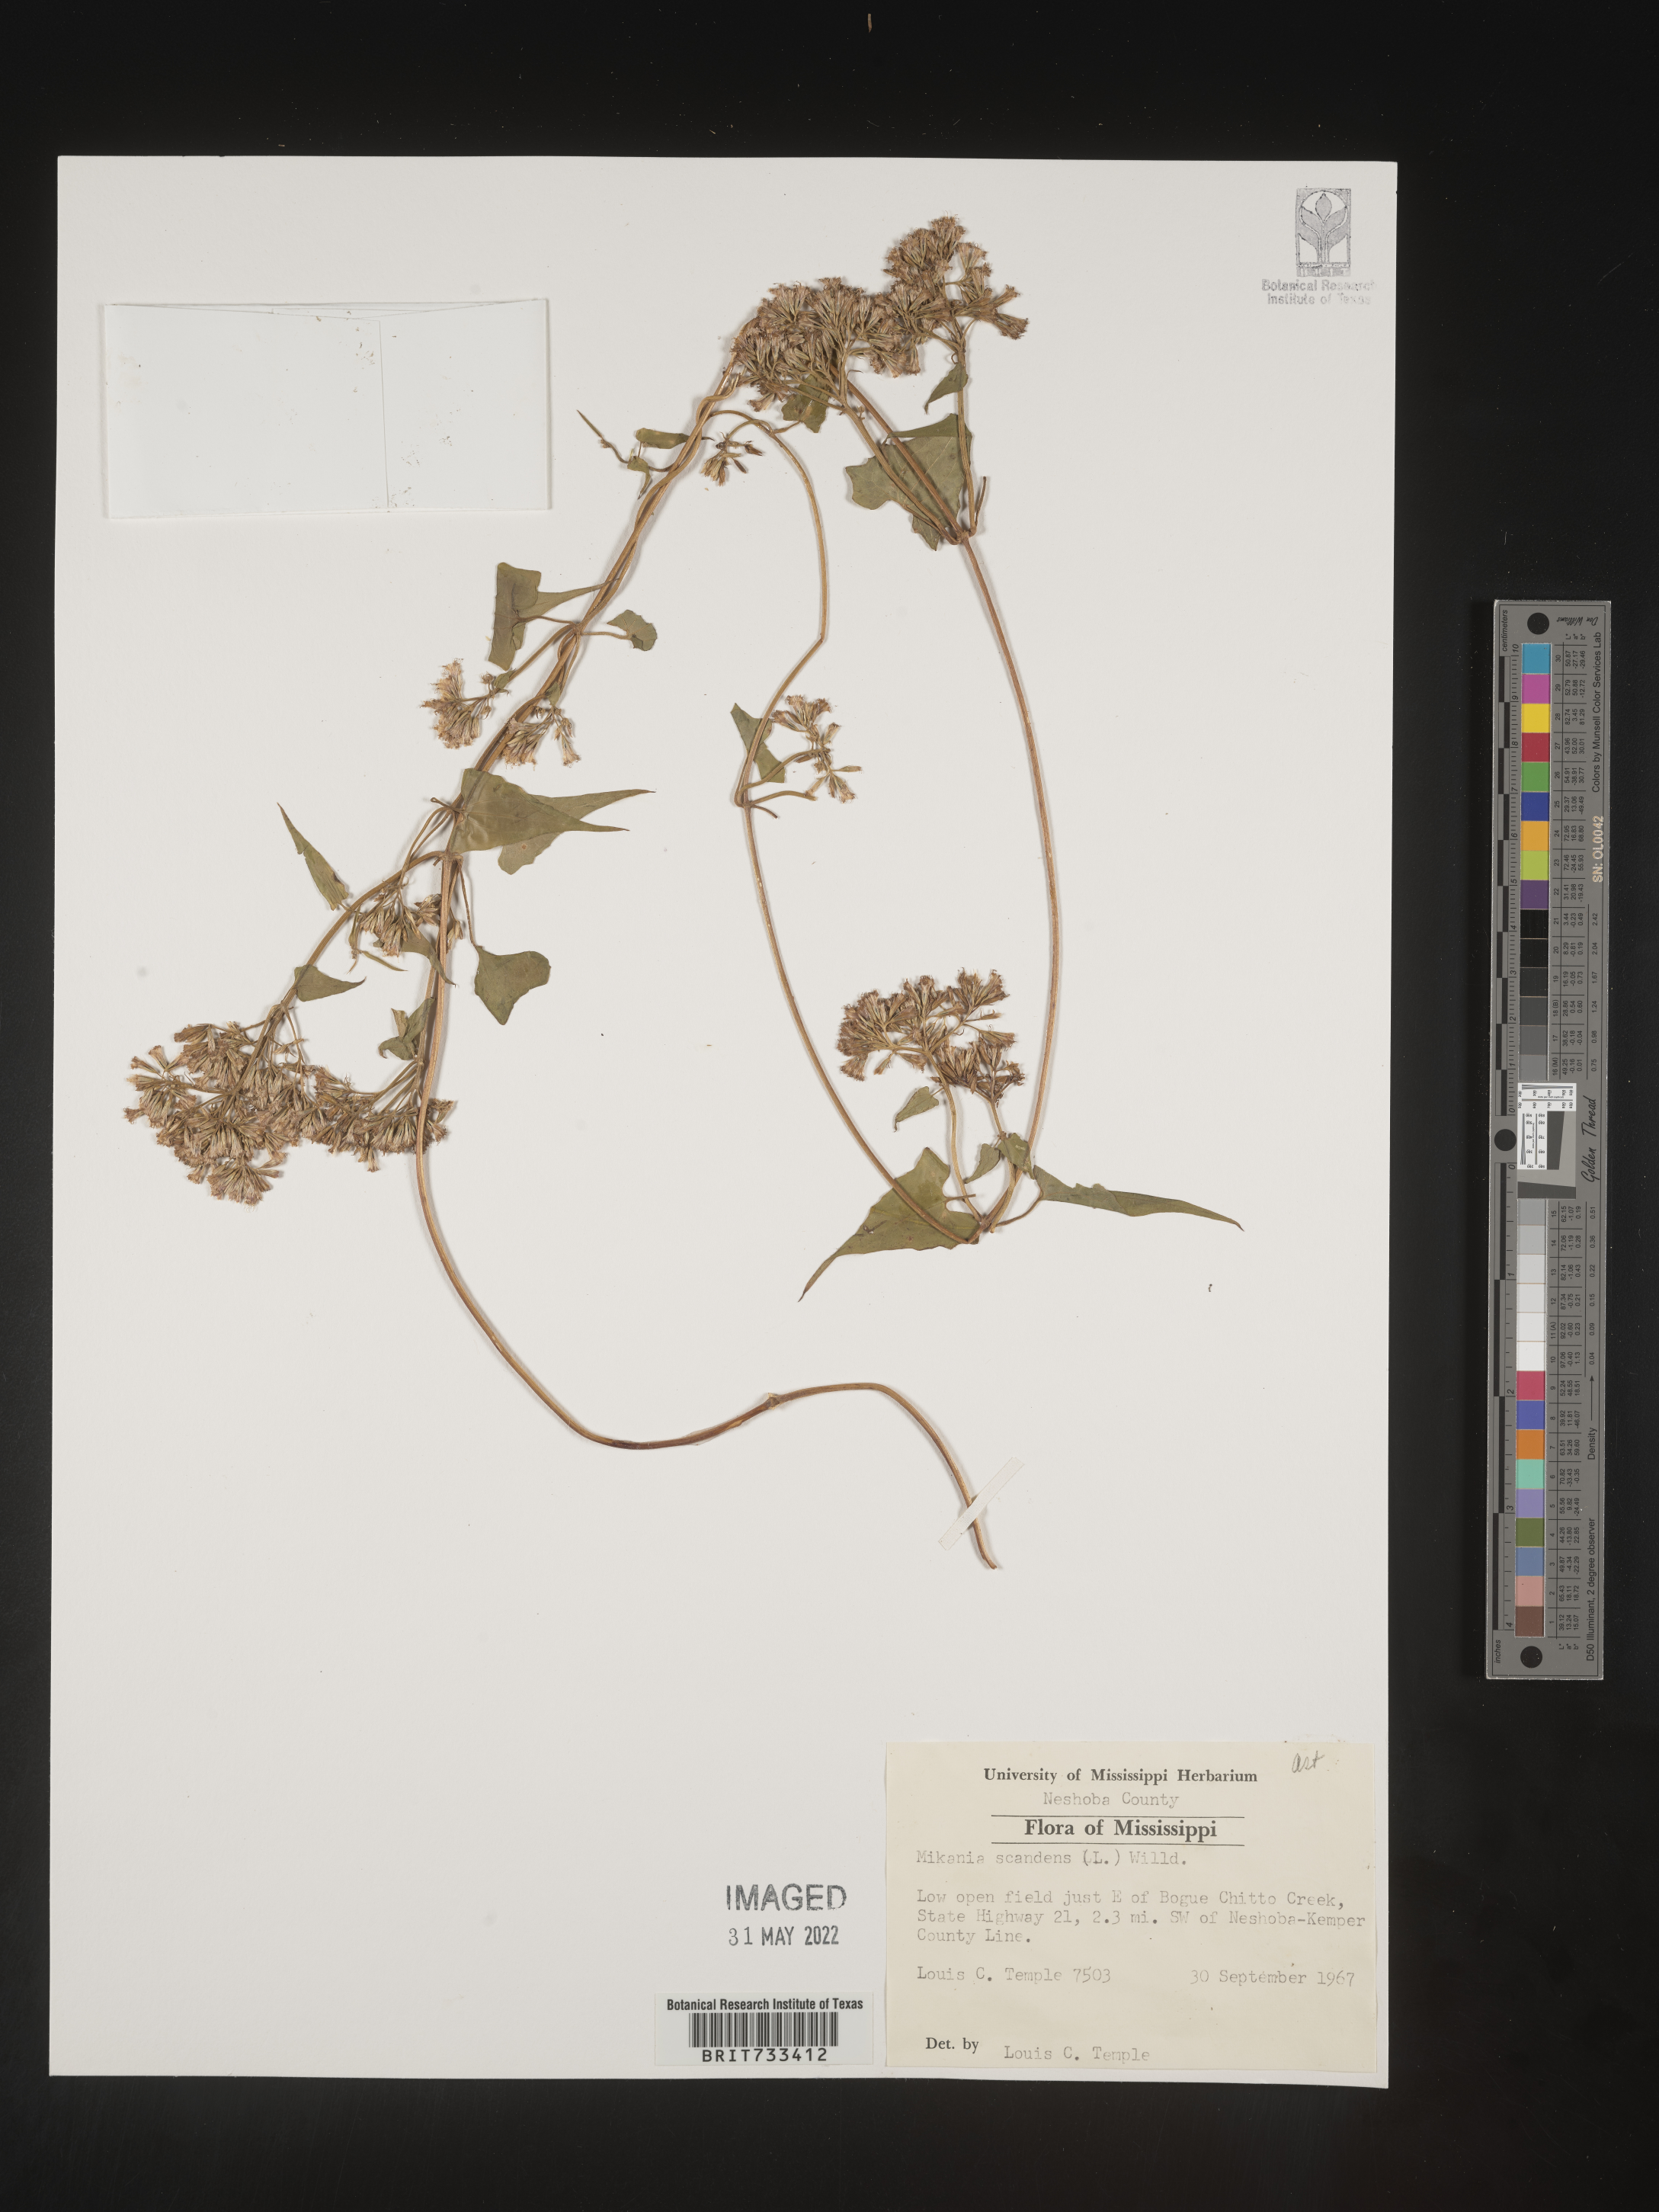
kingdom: Plantae
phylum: Tracheophyta
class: Magnoliopsida
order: Asterales
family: Asteraceae
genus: Mikania
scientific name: Mikania scandens
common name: Climbing hempvine
